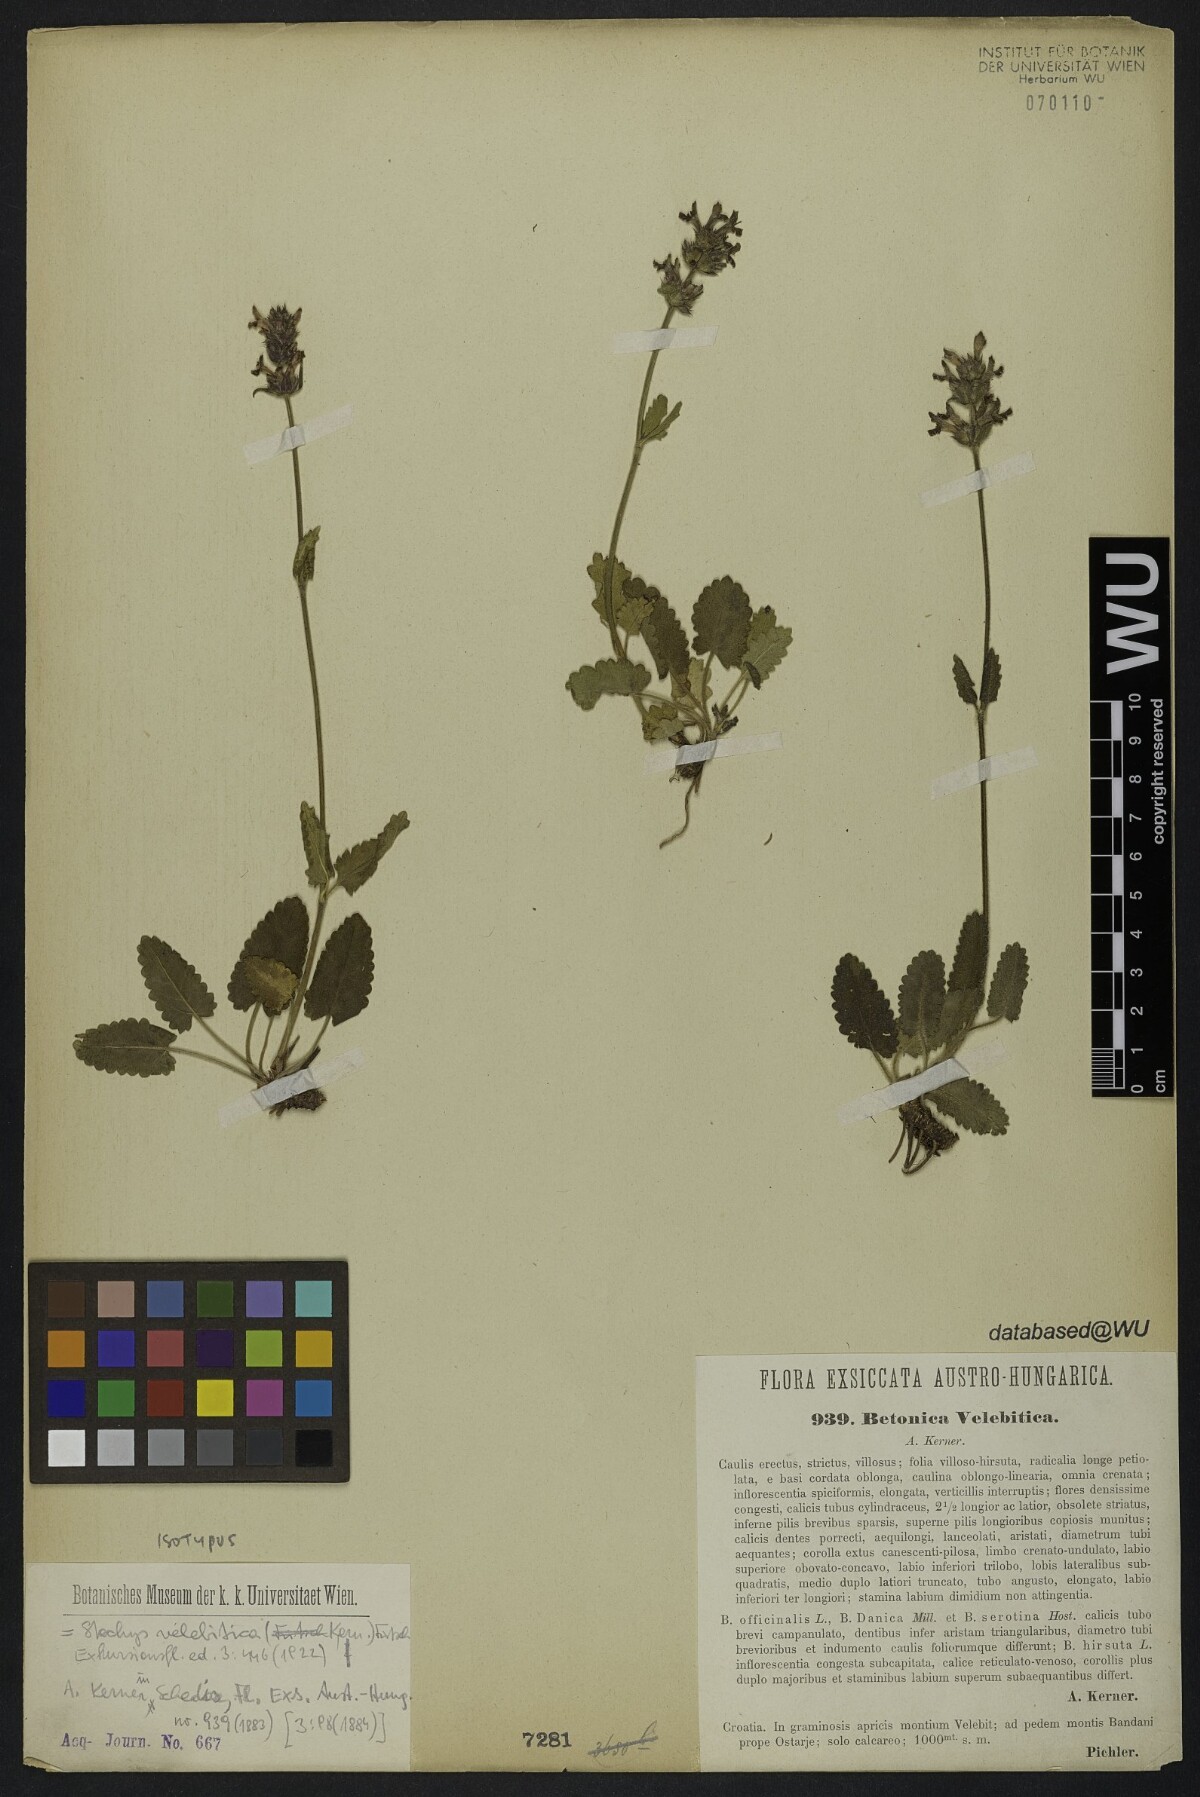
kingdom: Plantae
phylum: Tracheophyta
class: Magnoliopsida
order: Lamiales
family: Lamiaceae
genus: Betonica
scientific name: Betonica officinalis
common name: Bishop's-wort
